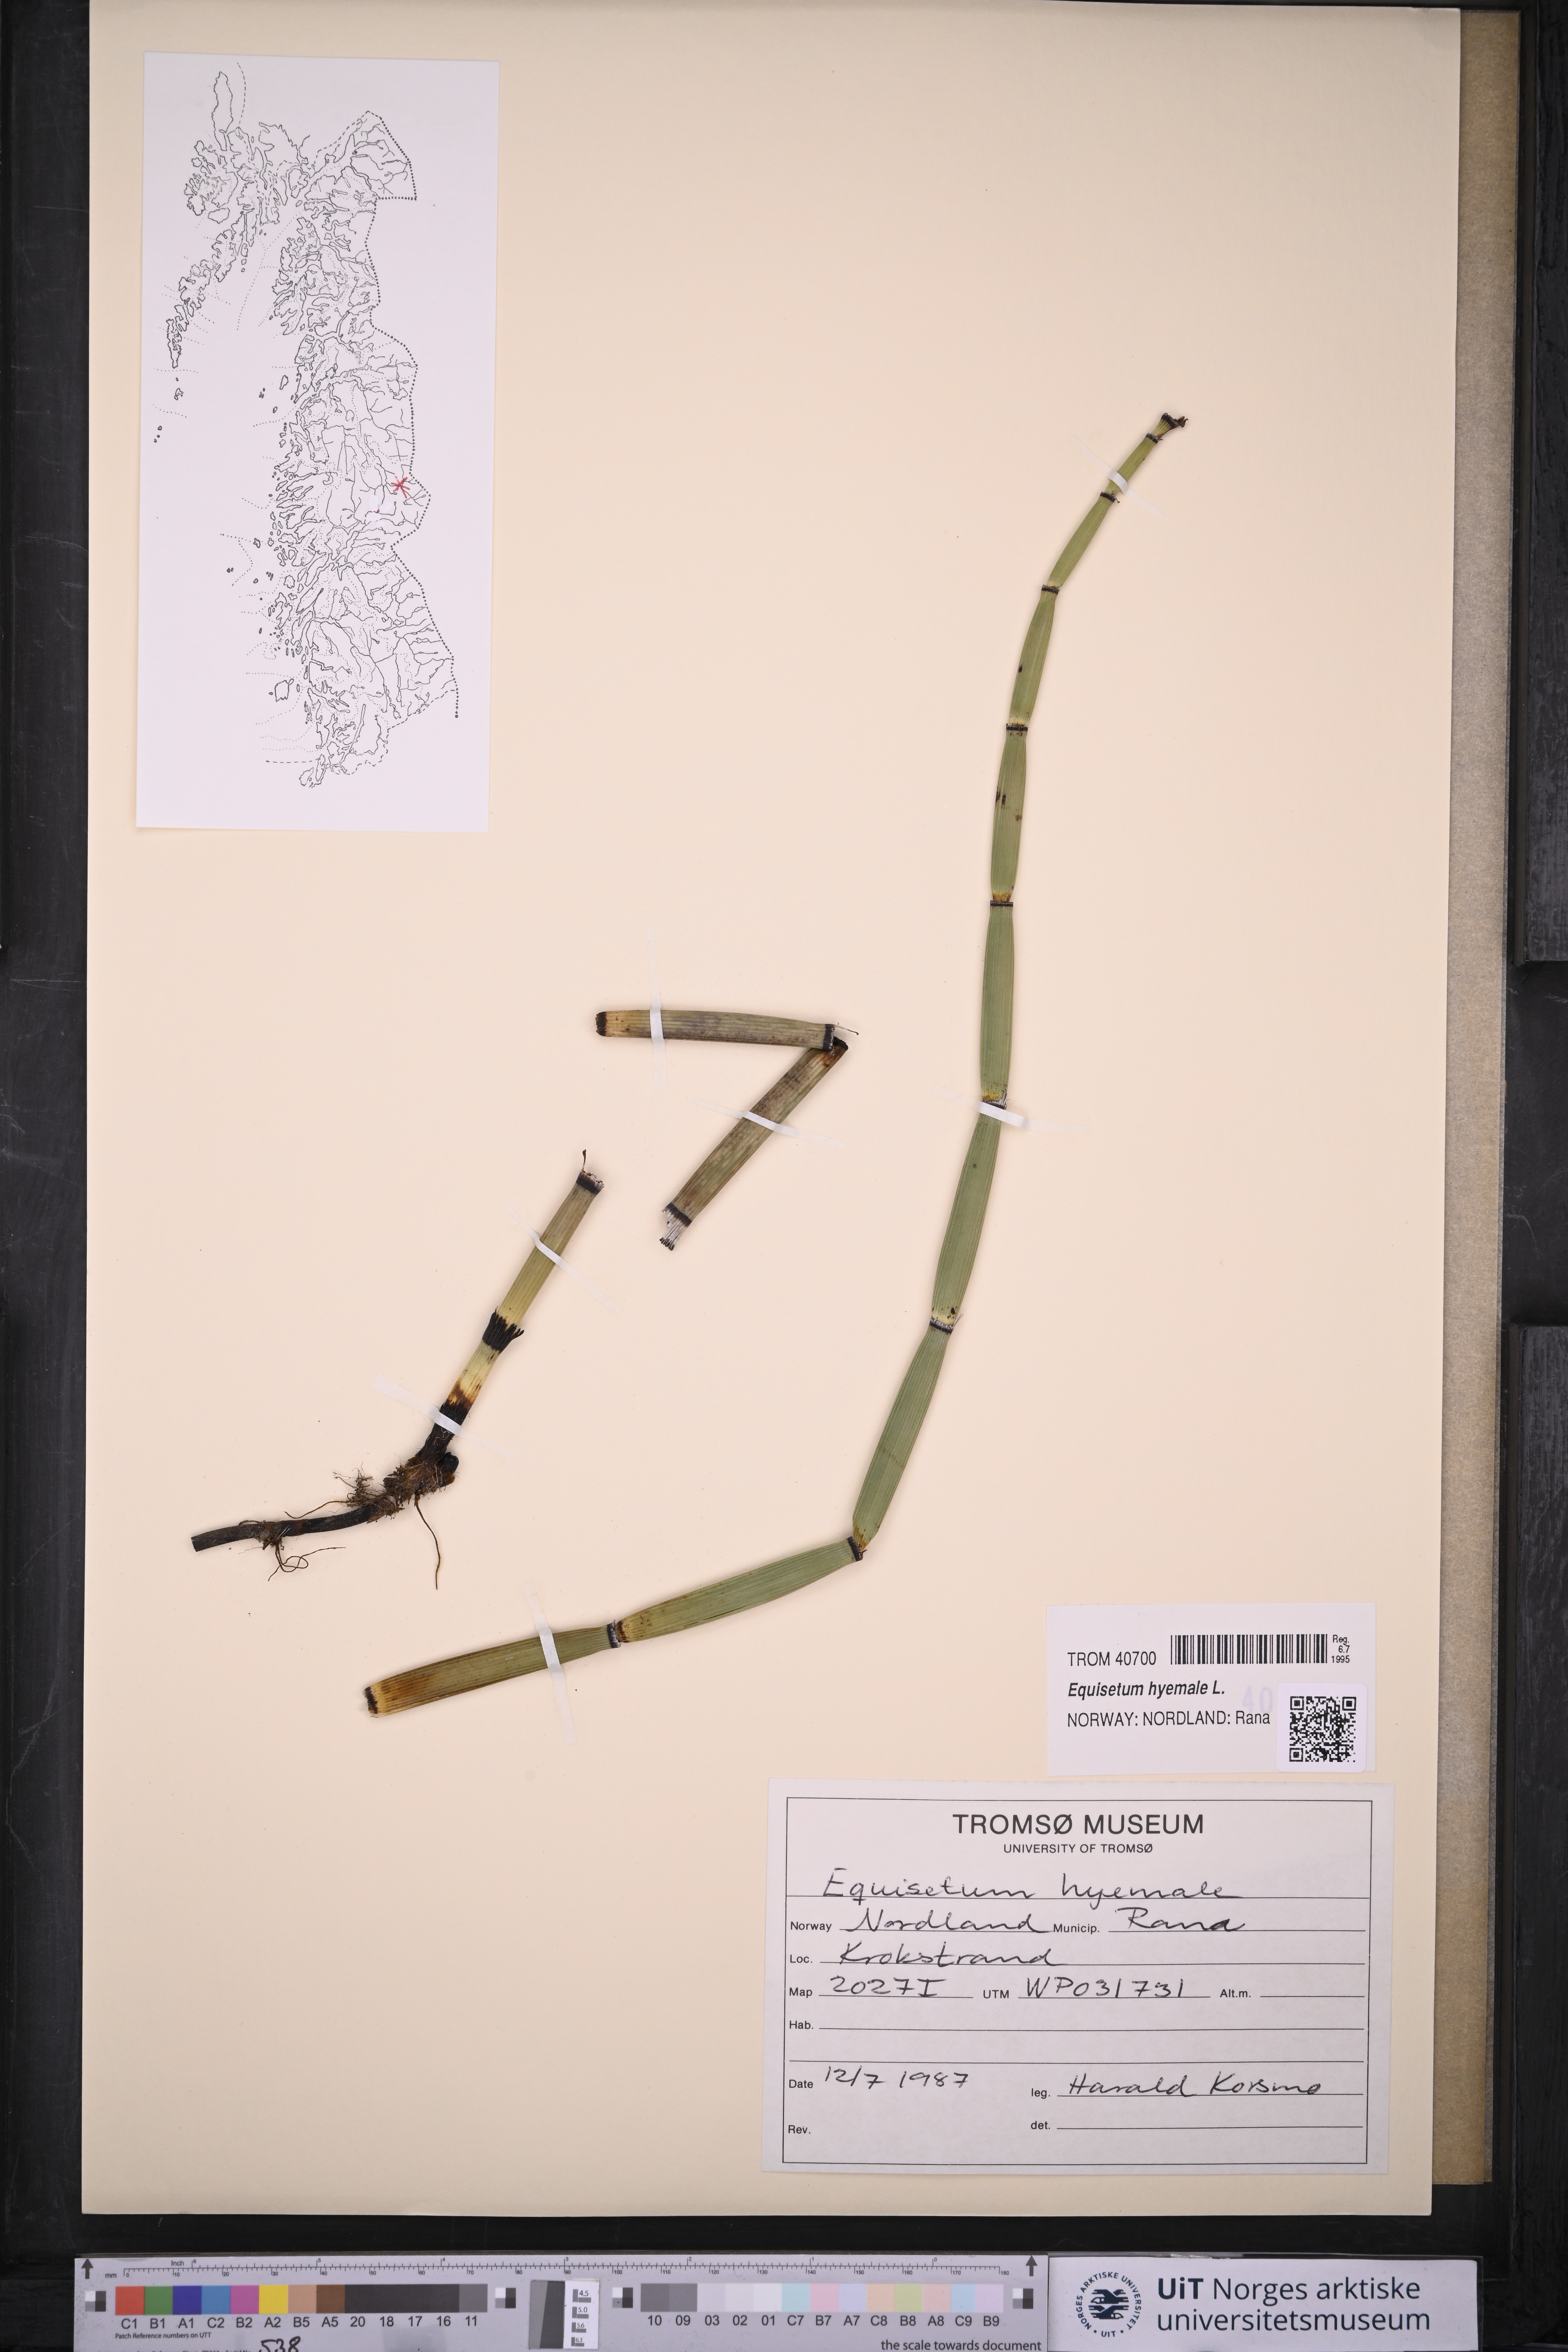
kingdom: Plantae
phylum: Tracheophyta
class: Polypodiopsida
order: Equisetales
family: Equisetaceae
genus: Equisetum
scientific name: Equisetum hyemale
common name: Rough horsetail
